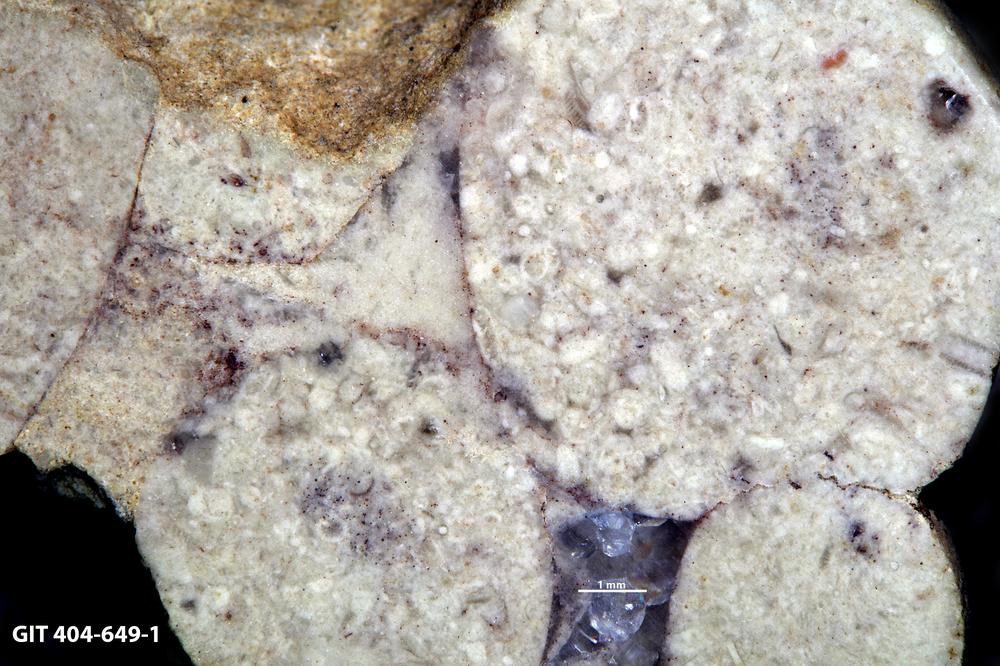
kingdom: Animalia
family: Coprulidae
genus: Coprulus
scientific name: Coprulus
